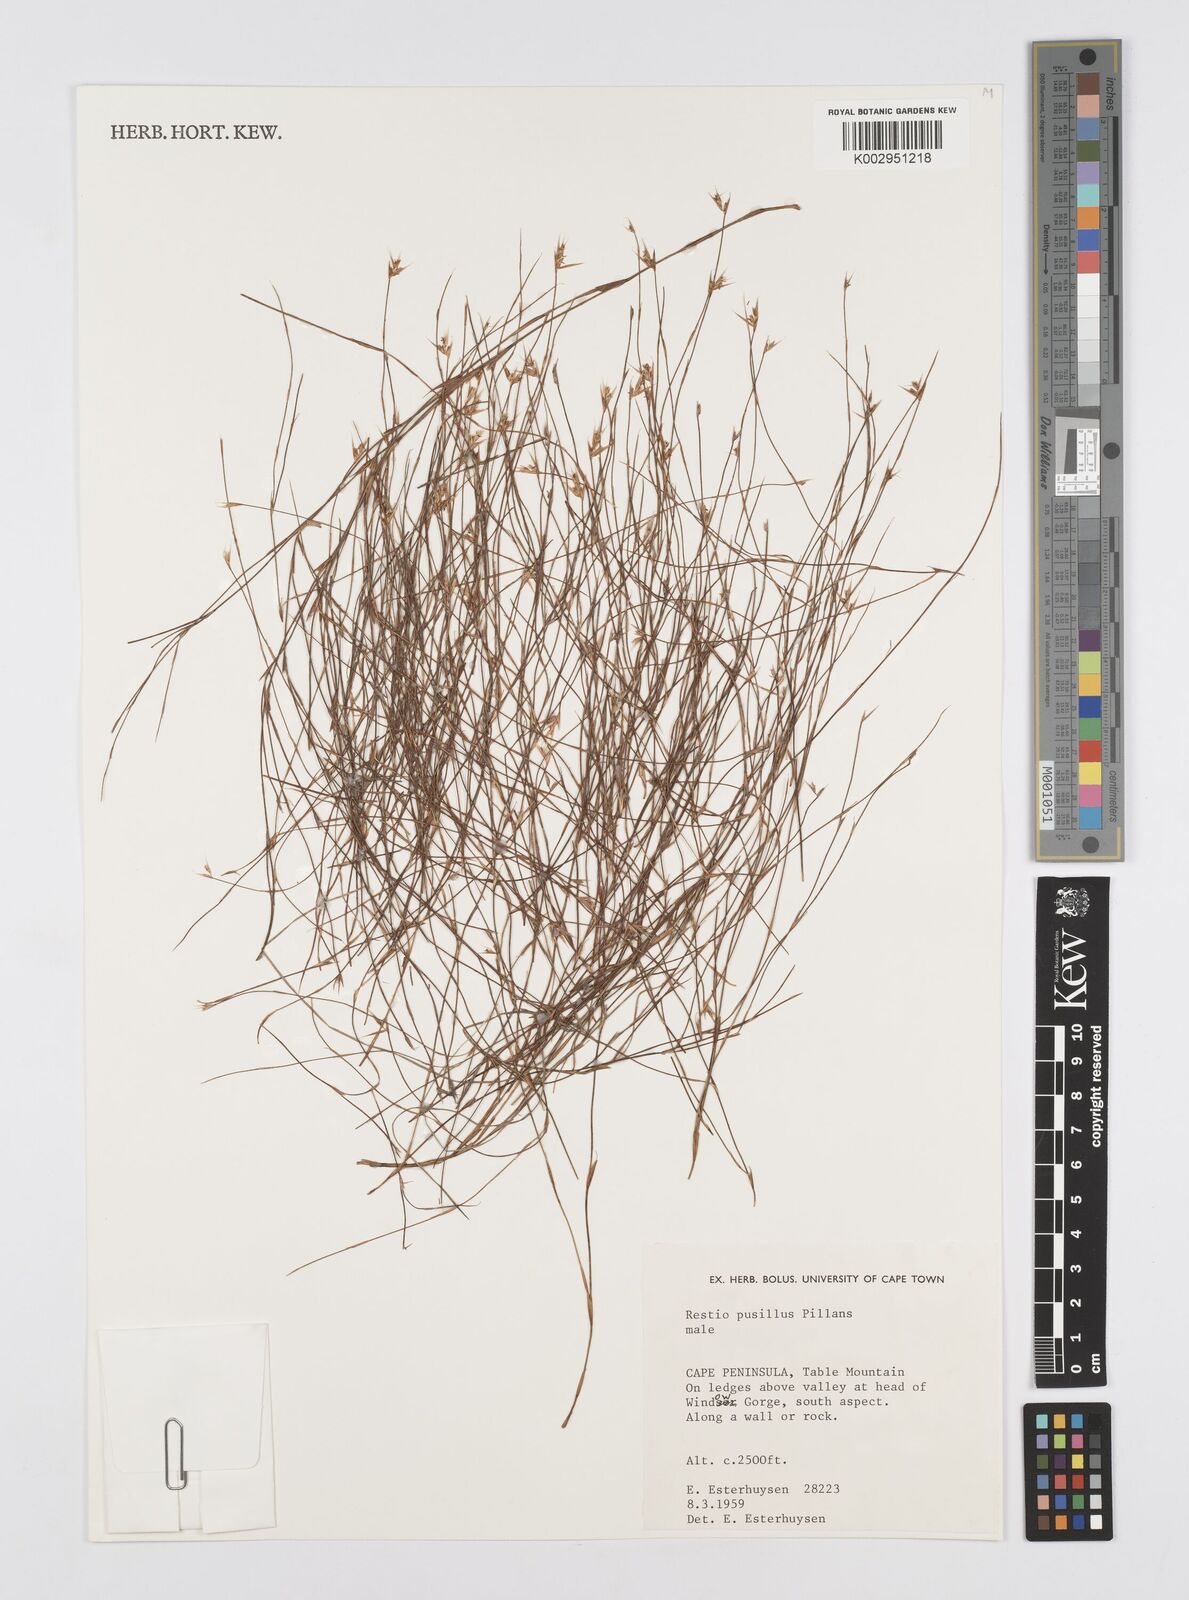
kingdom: Plantae
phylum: Tracheophyta
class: Liliopsida
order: Poales
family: Restionaceae
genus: Restio
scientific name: Restio leptostachyus
